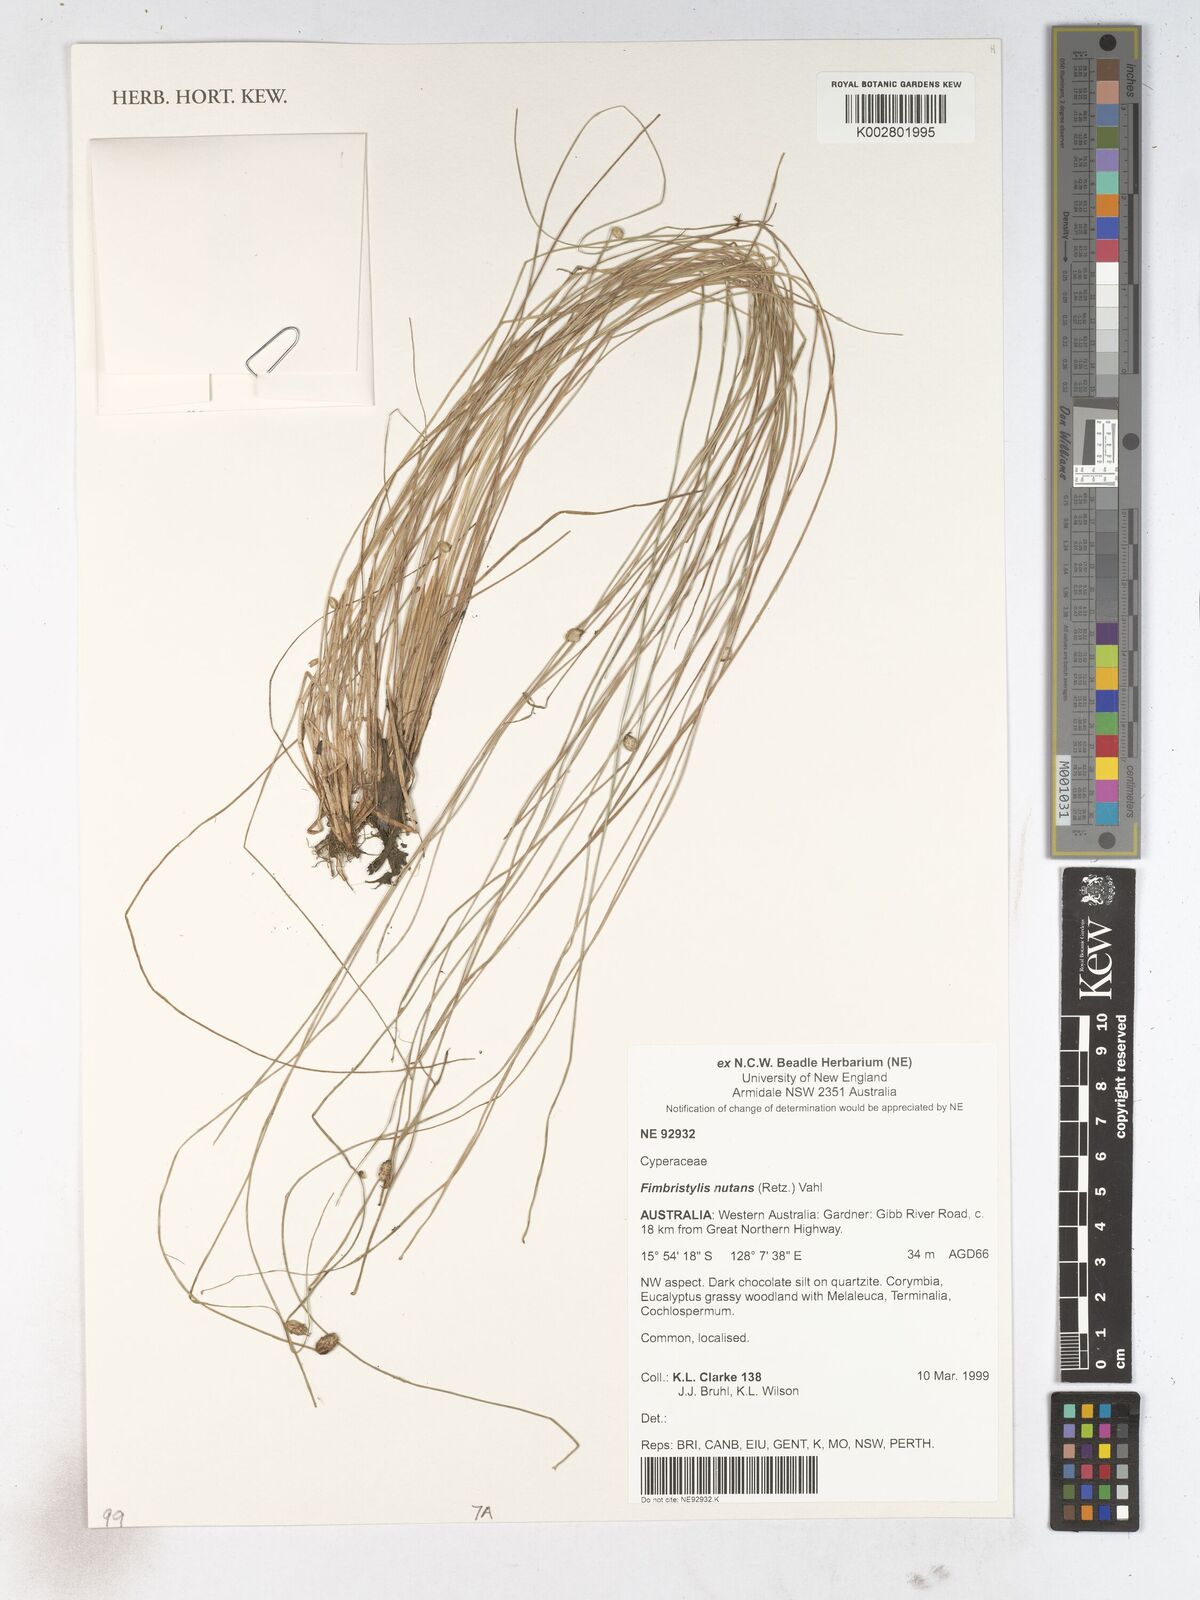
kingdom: Plantae
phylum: Tracheophyta
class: Liliopsida
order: Poales
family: Cyperaceae
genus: Fimbristylis
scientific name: Fimbristylis nutans
